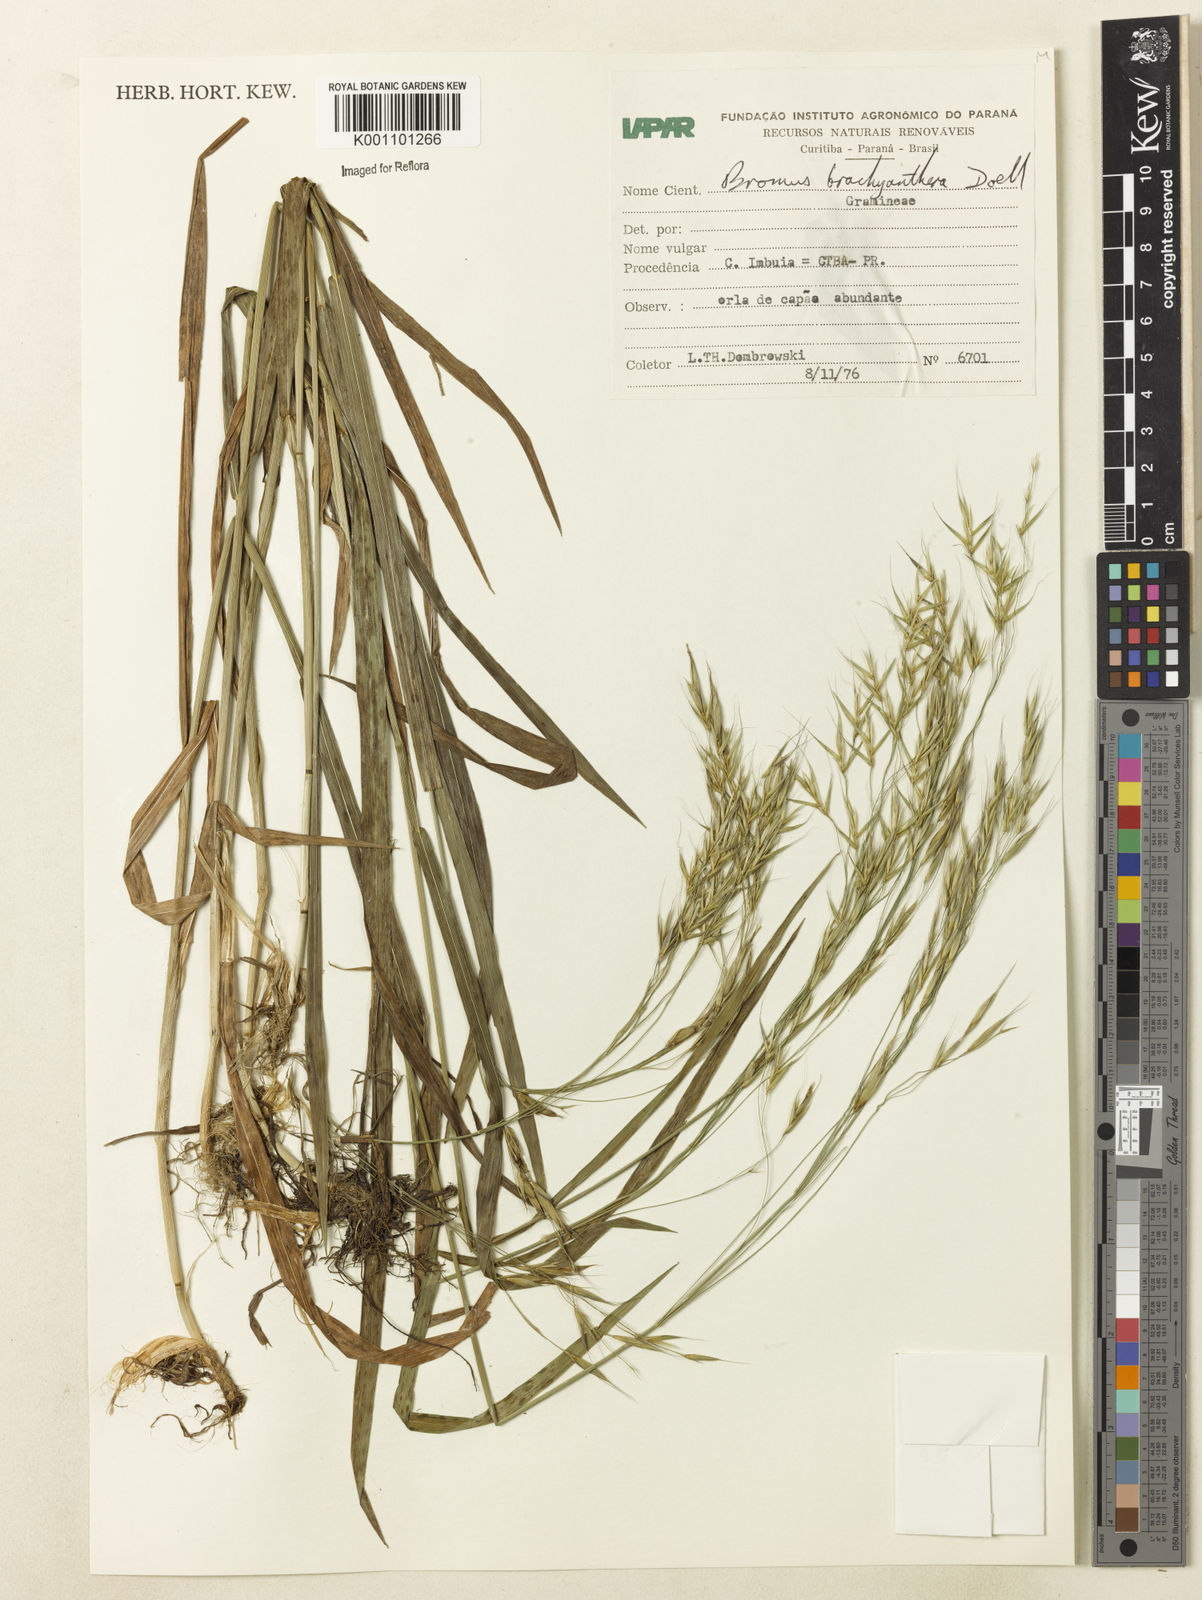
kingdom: Plantae
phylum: Tracheophyta
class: Liliopsida
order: Poales
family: Poaceae
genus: Bromus
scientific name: Bromus
